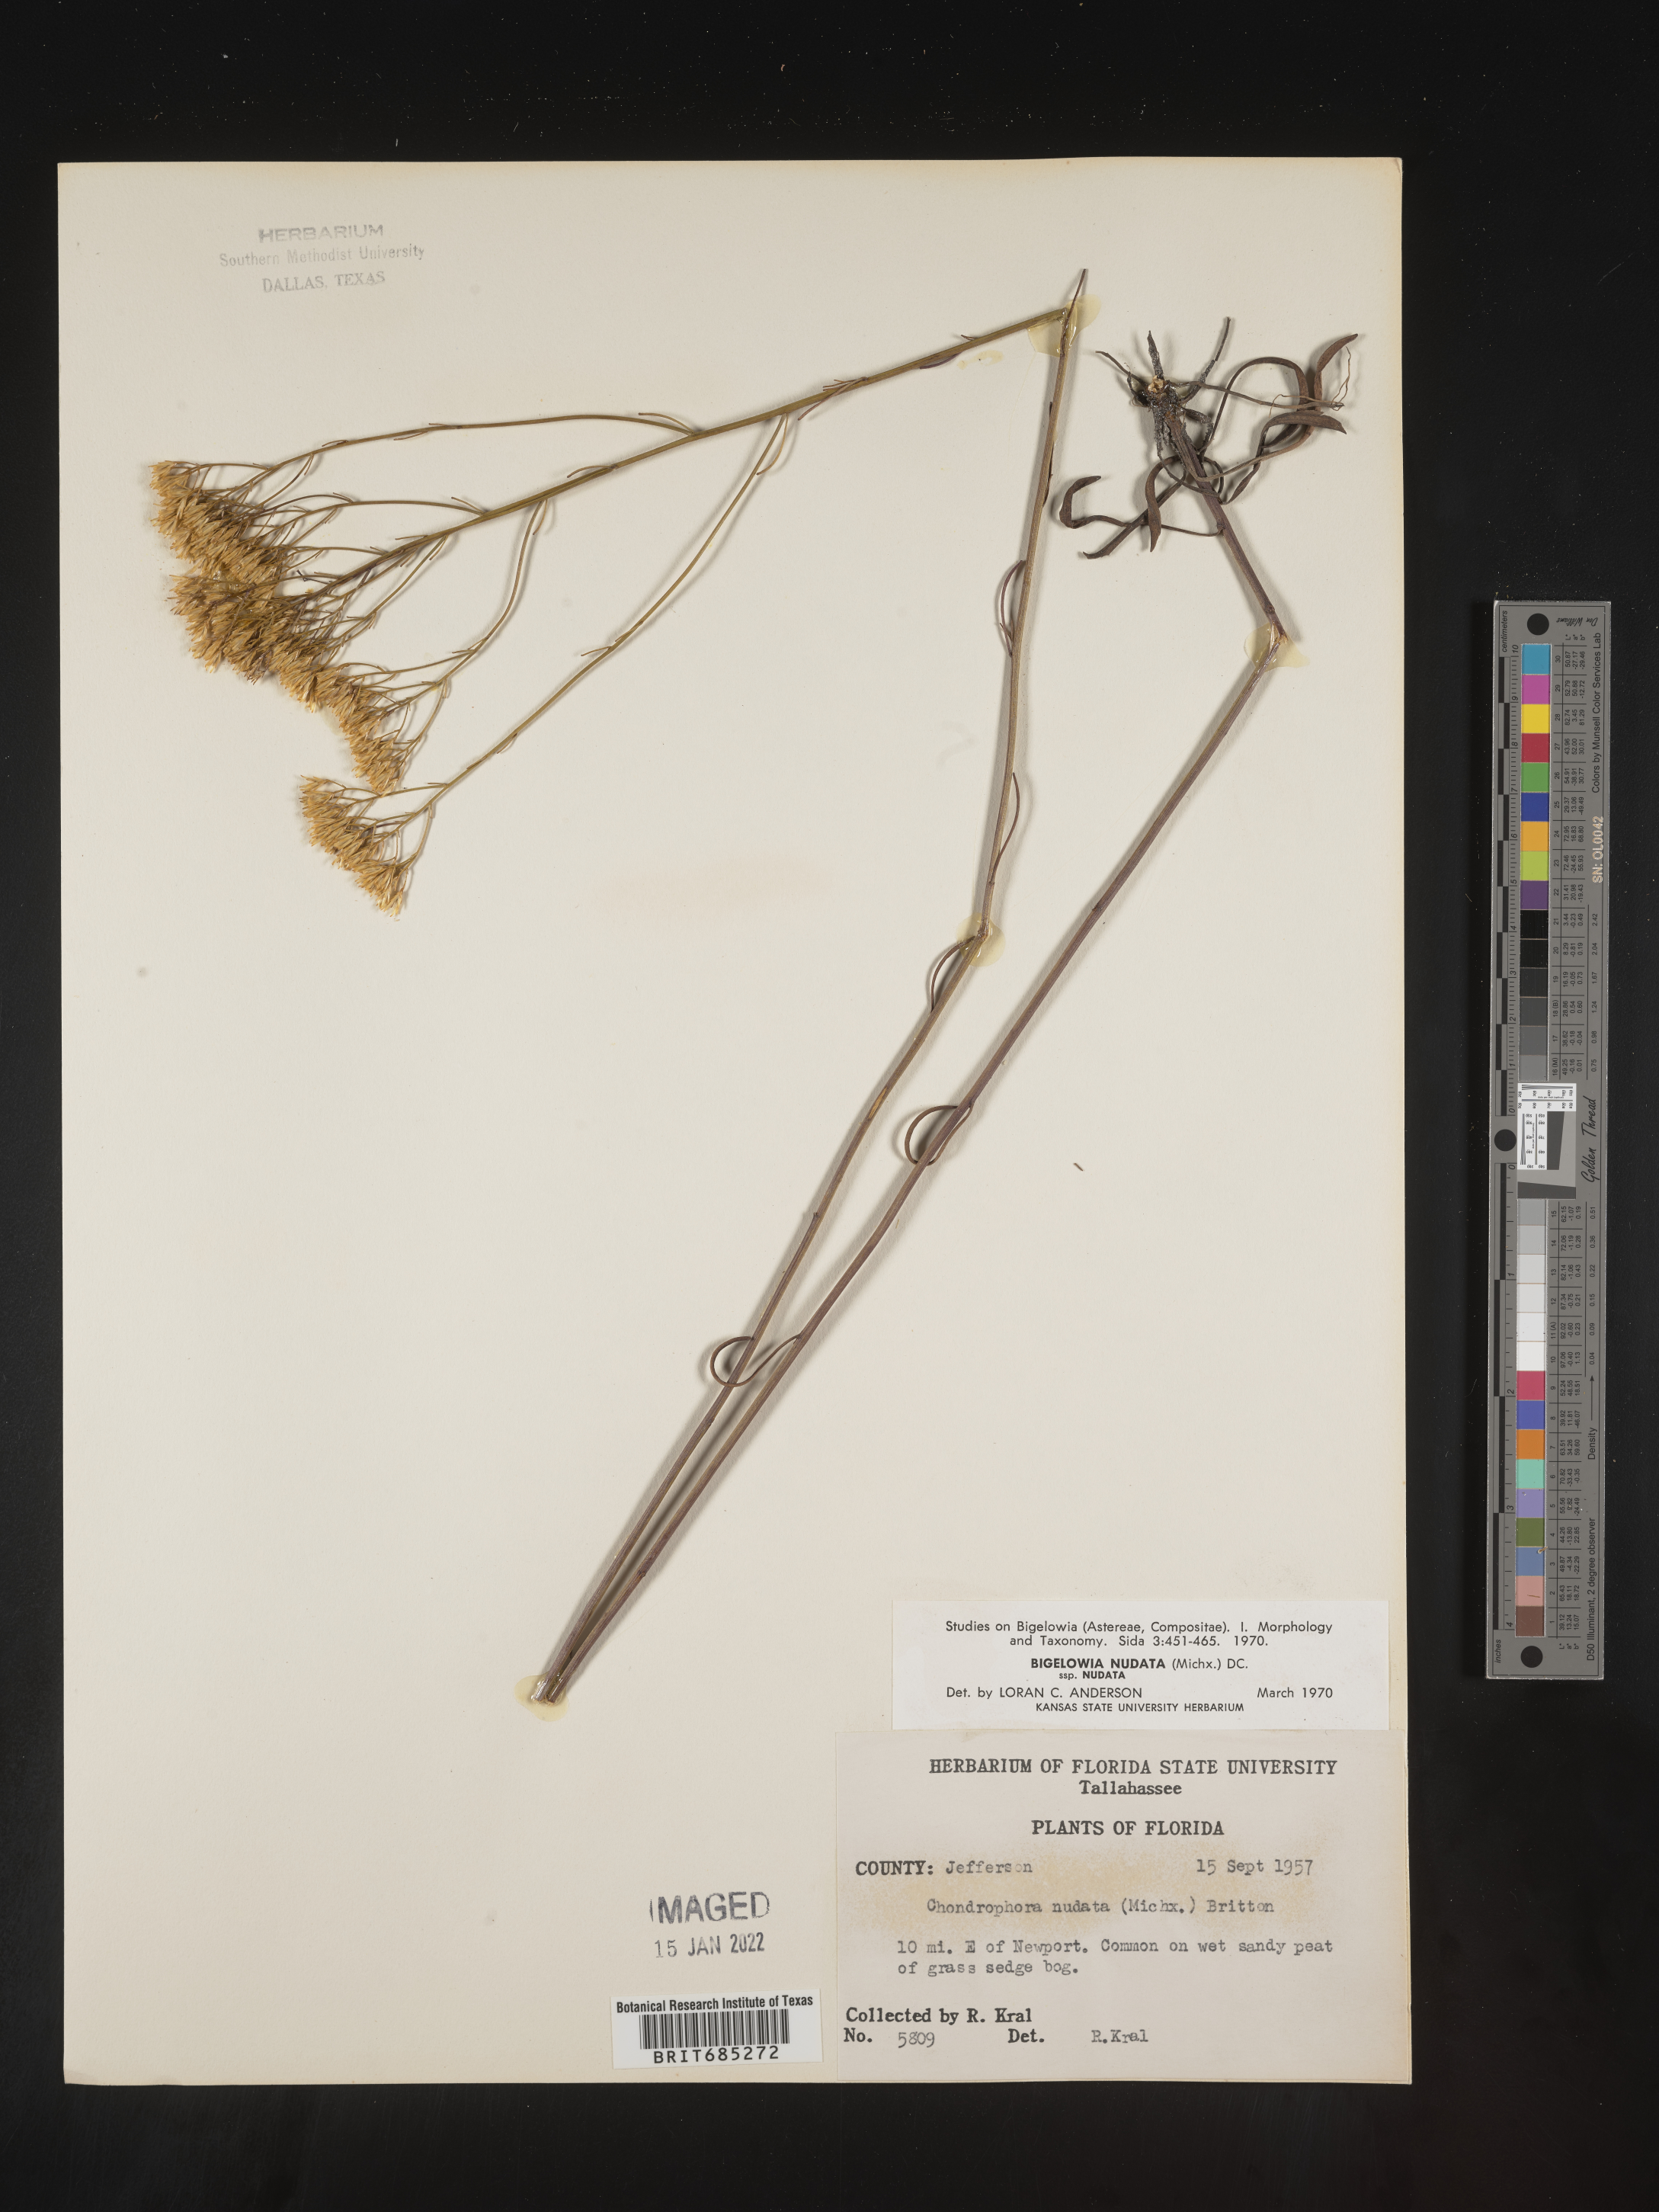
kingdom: Plantae
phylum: Tracheophyta
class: Magnoliopsida
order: Asterales
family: Asteraceae
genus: Bigelowia
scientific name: Bigelowia nudata
